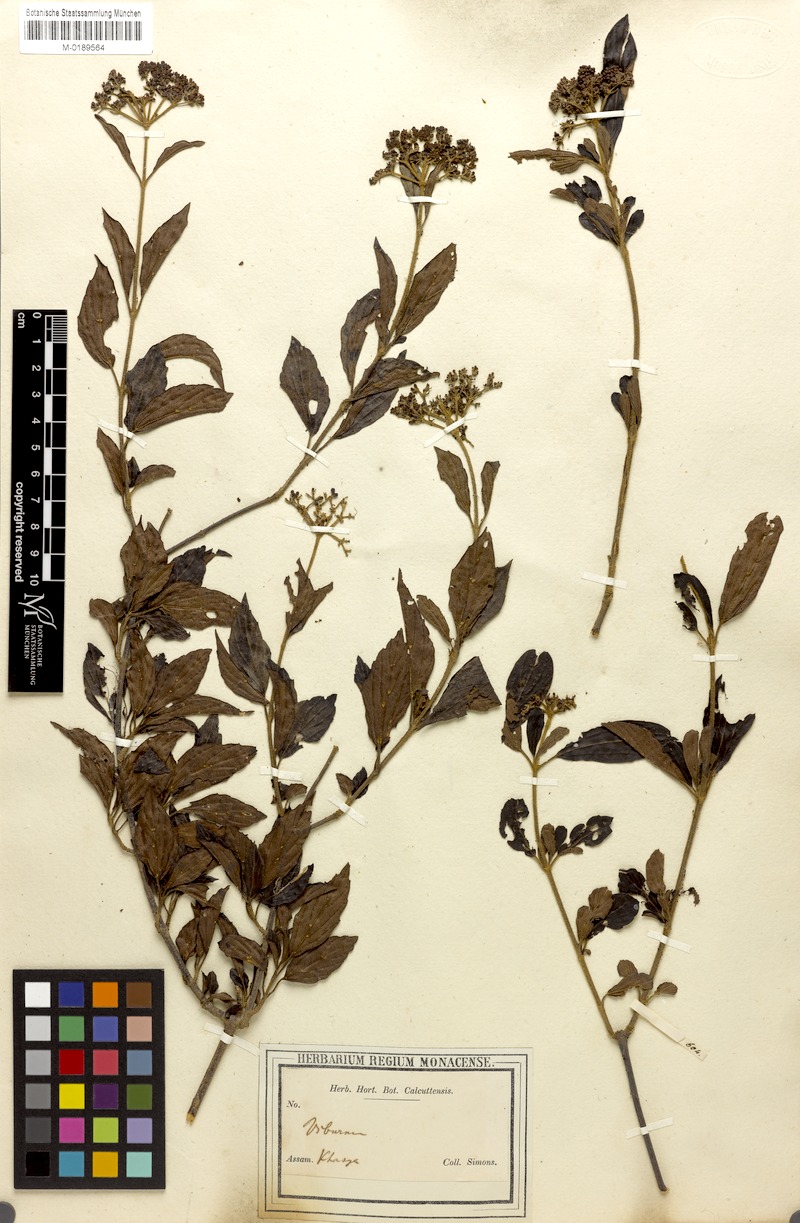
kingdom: Plantae
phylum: Tracheophyta
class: Magnoliopsida
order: Dipsacales
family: Viburnaceae
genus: Viburnum
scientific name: Viburnum odoratissimum
